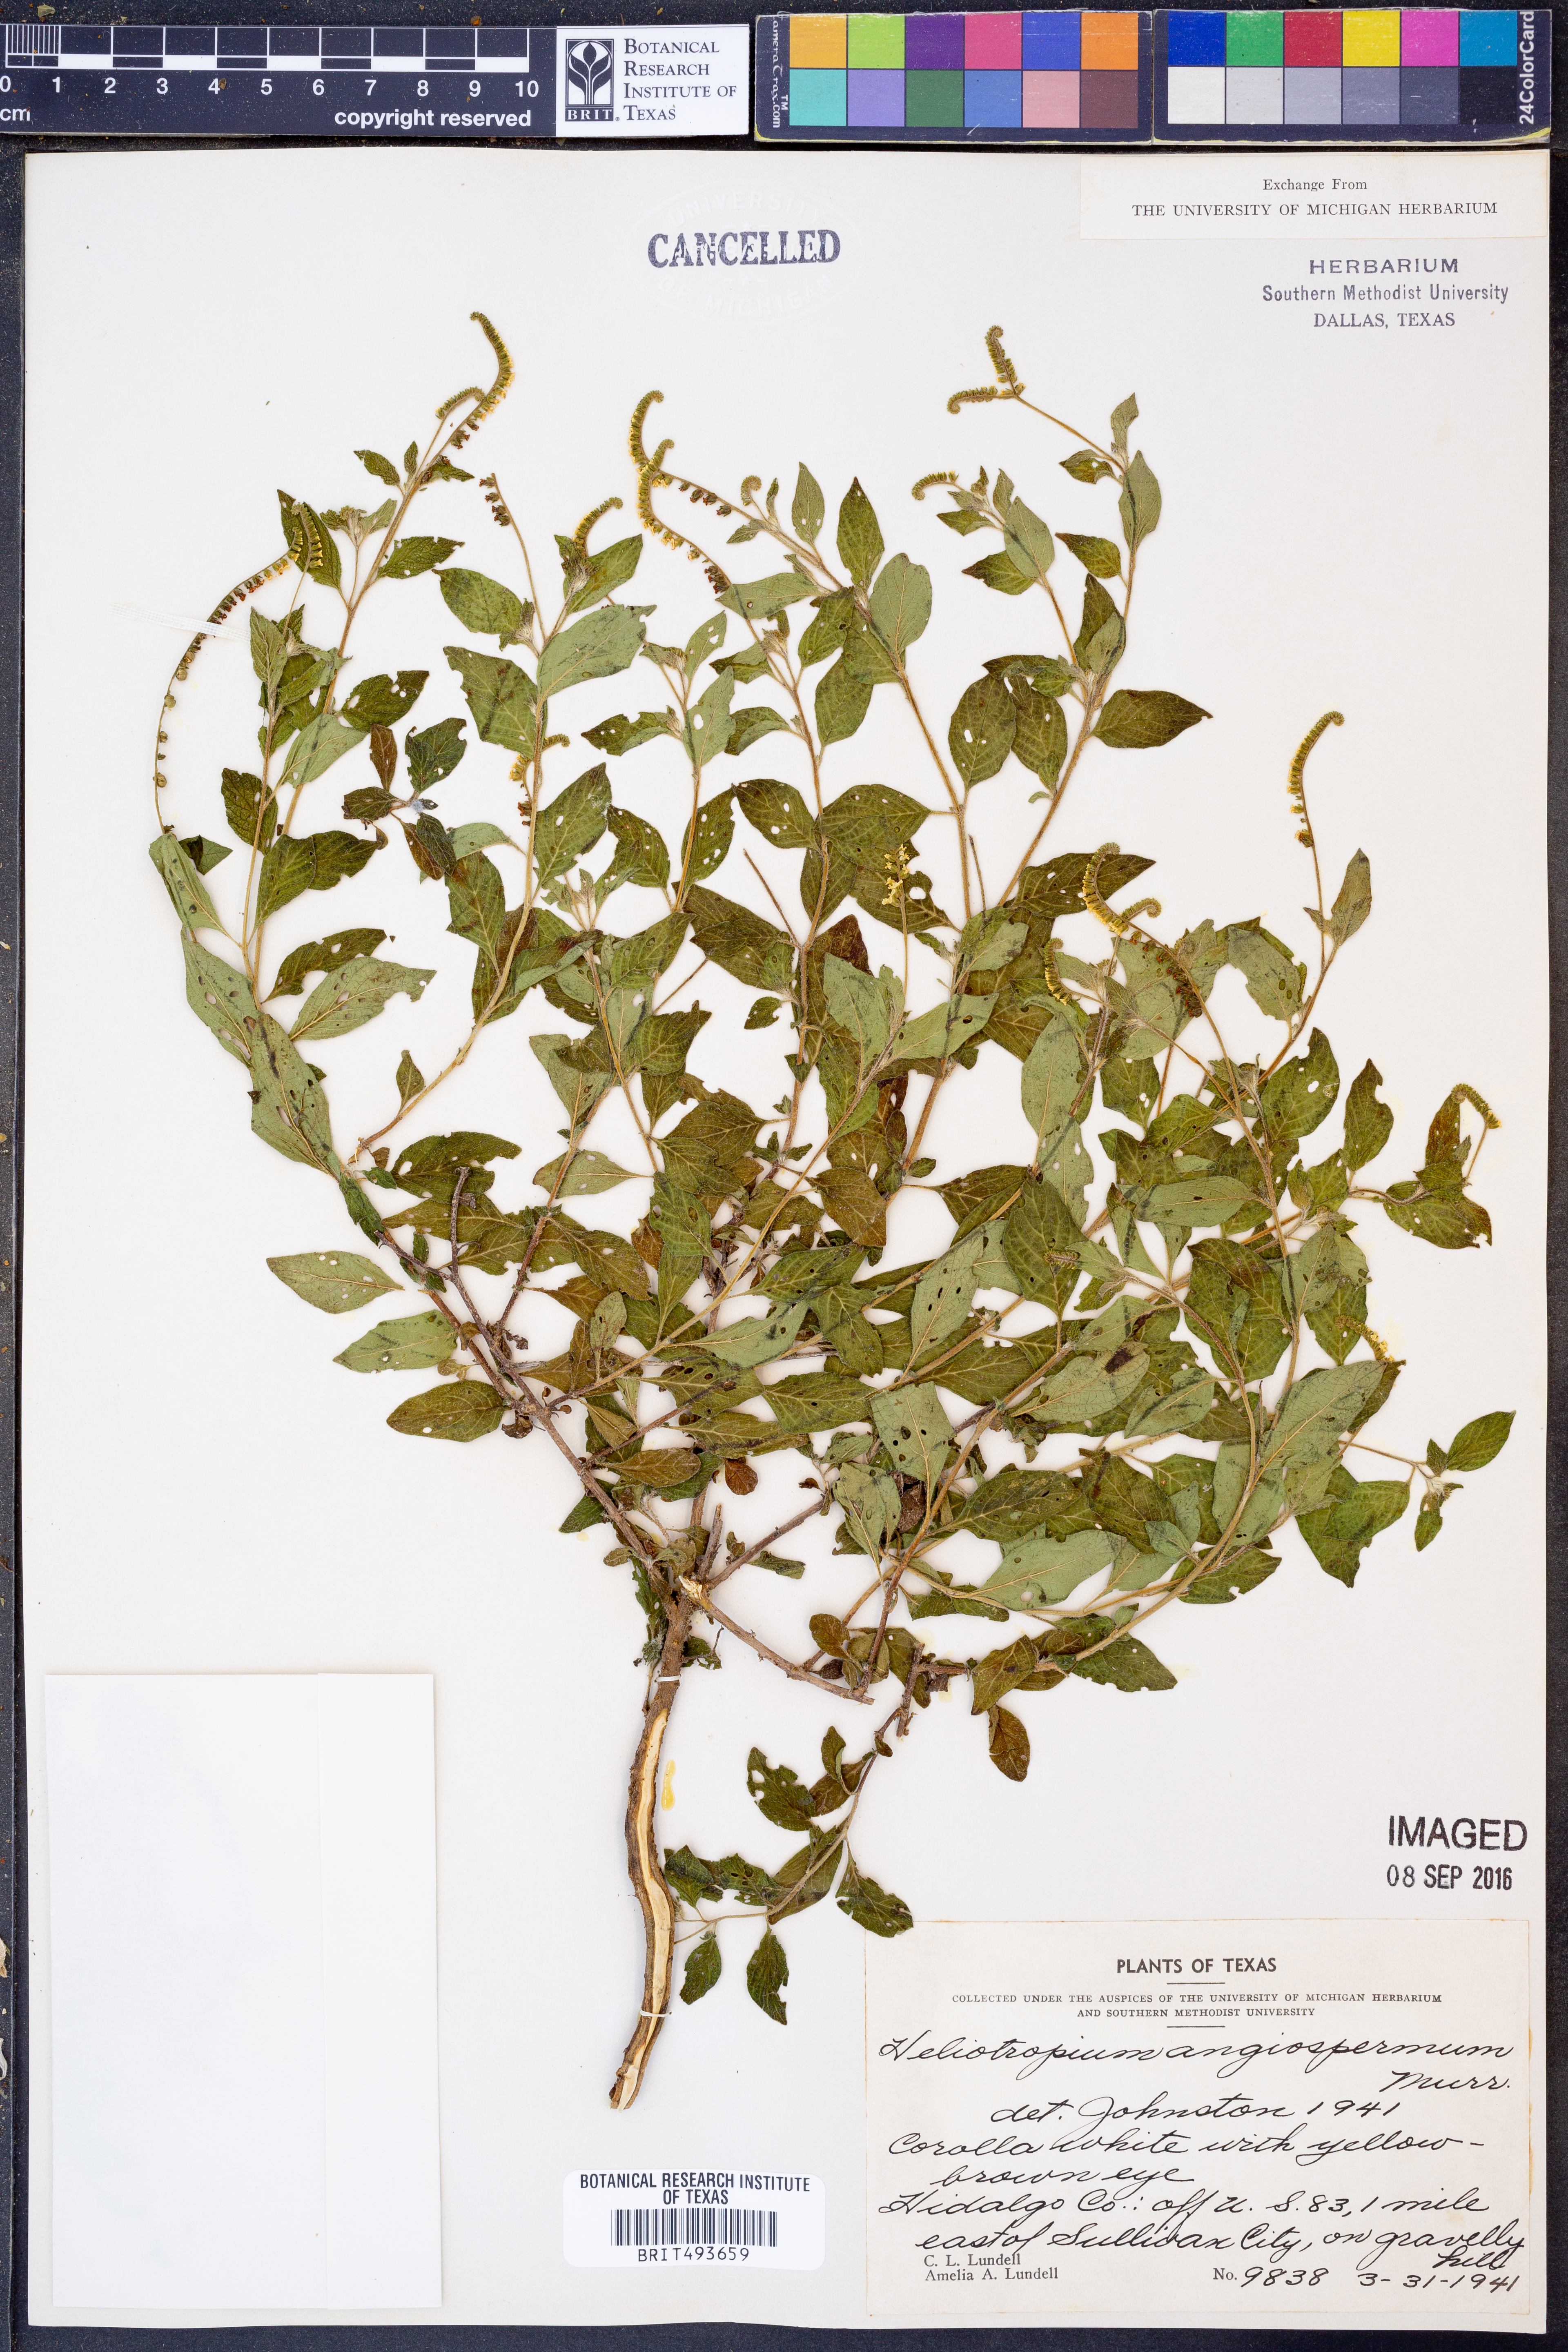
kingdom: Plantae
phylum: Tracheophyta
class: Magnoliopsida
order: Boraginales
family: Heliotropiaceae
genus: Heliotropium
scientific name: Heliotropium angiospermum
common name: Eye bright
